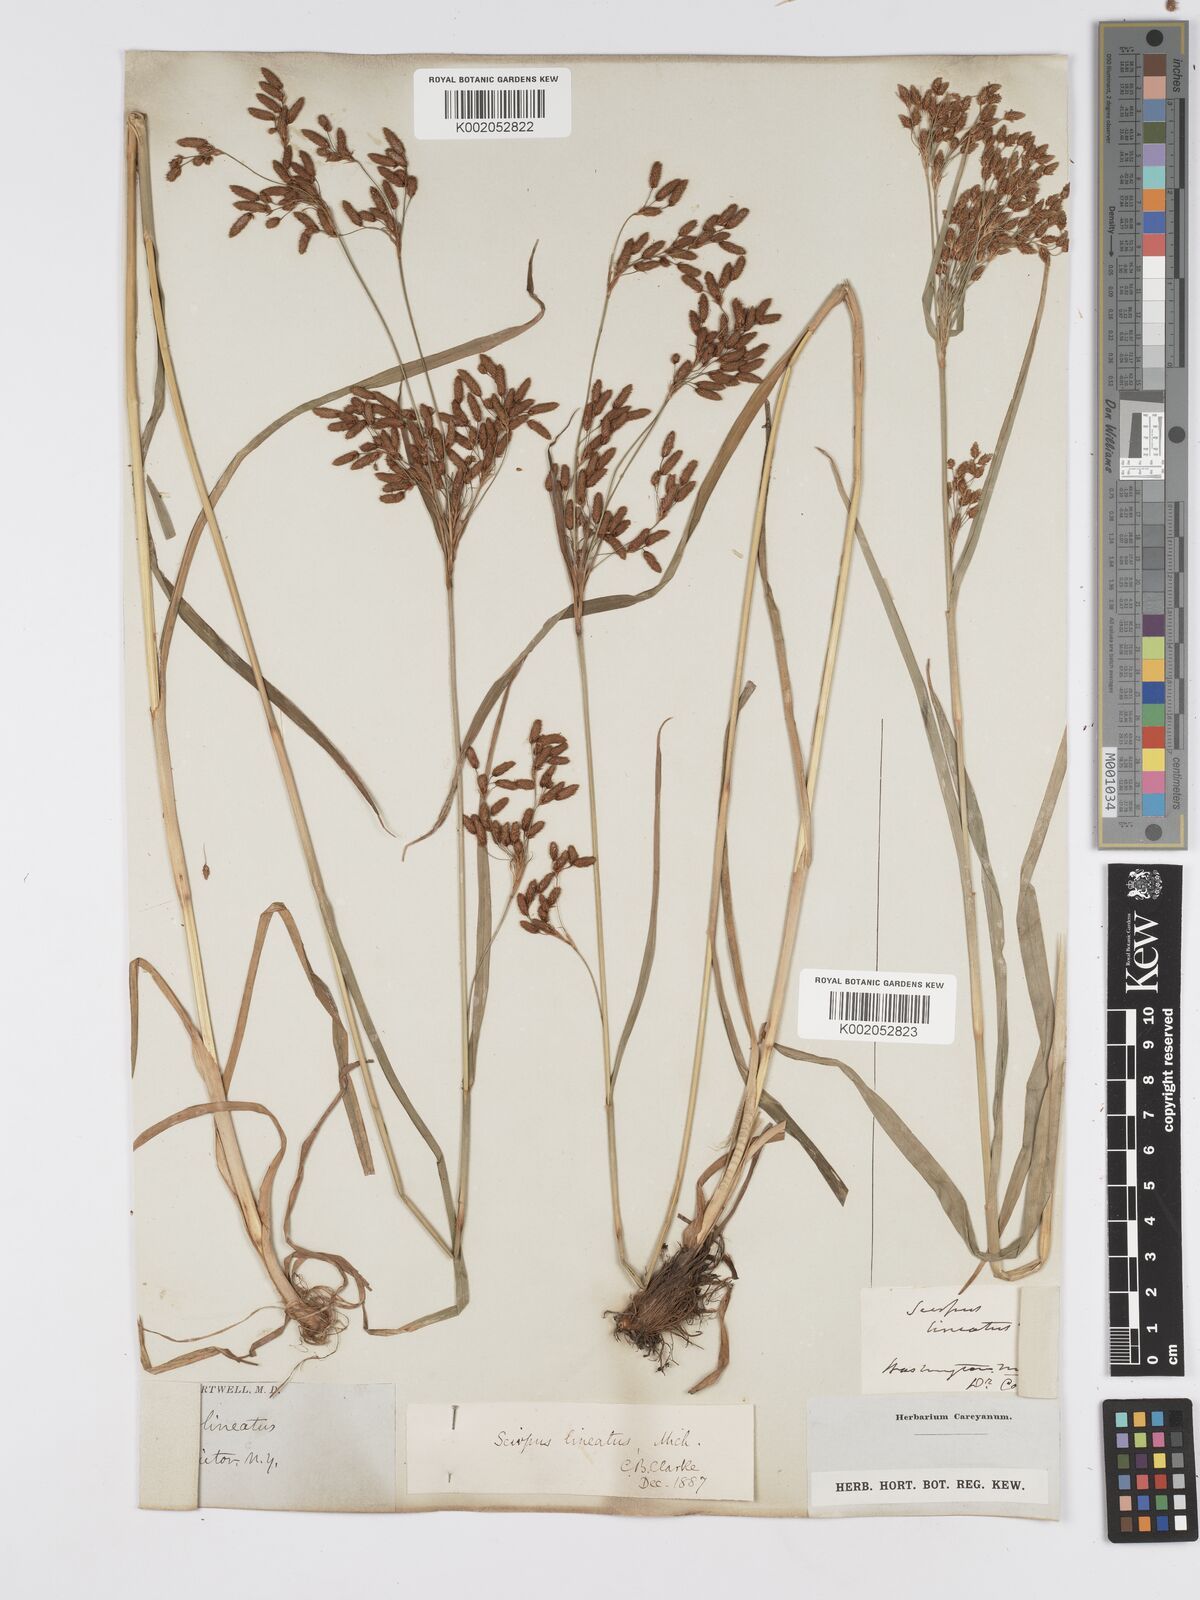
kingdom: Plantae
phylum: Tracheophyta
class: Liliopsida
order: Poales
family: Cyperaceae
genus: Scirpus
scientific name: Scirpus lineatus
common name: Drooping bulrush
